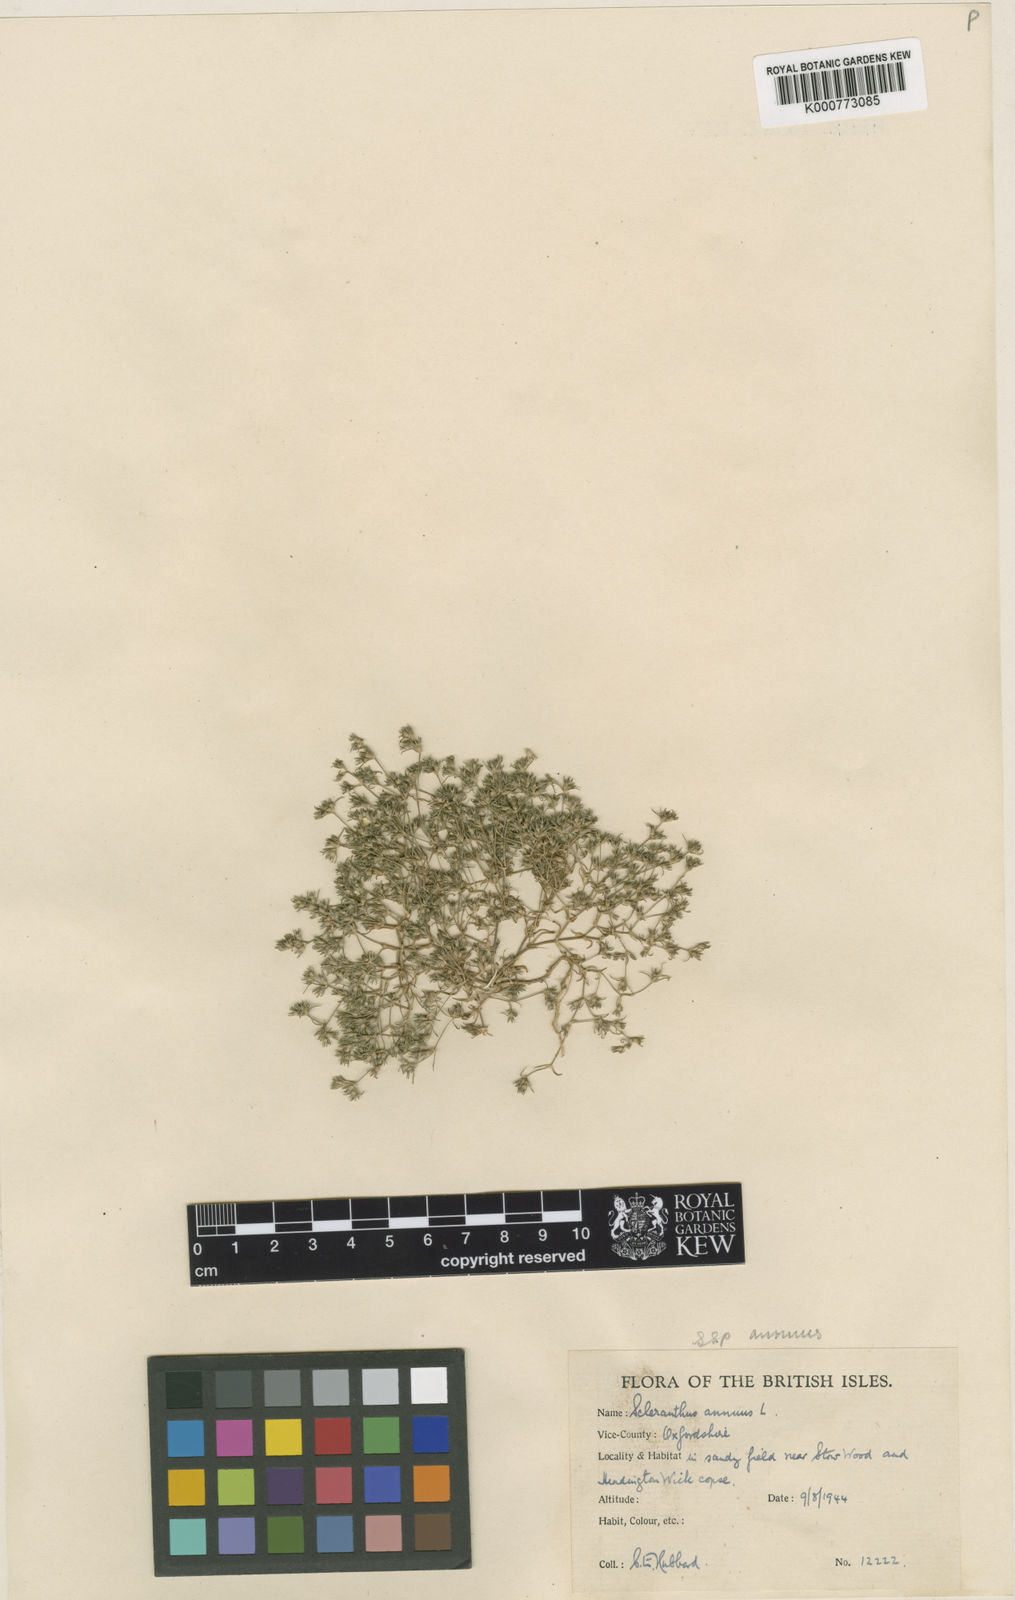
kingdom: Plantae
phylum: Tracheophyta
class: Magnoliopsida
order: Caryophyllales
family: Caryophyllaceae
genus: Scleranthus
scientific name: Scleranthus annuus
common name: Annual knawel
